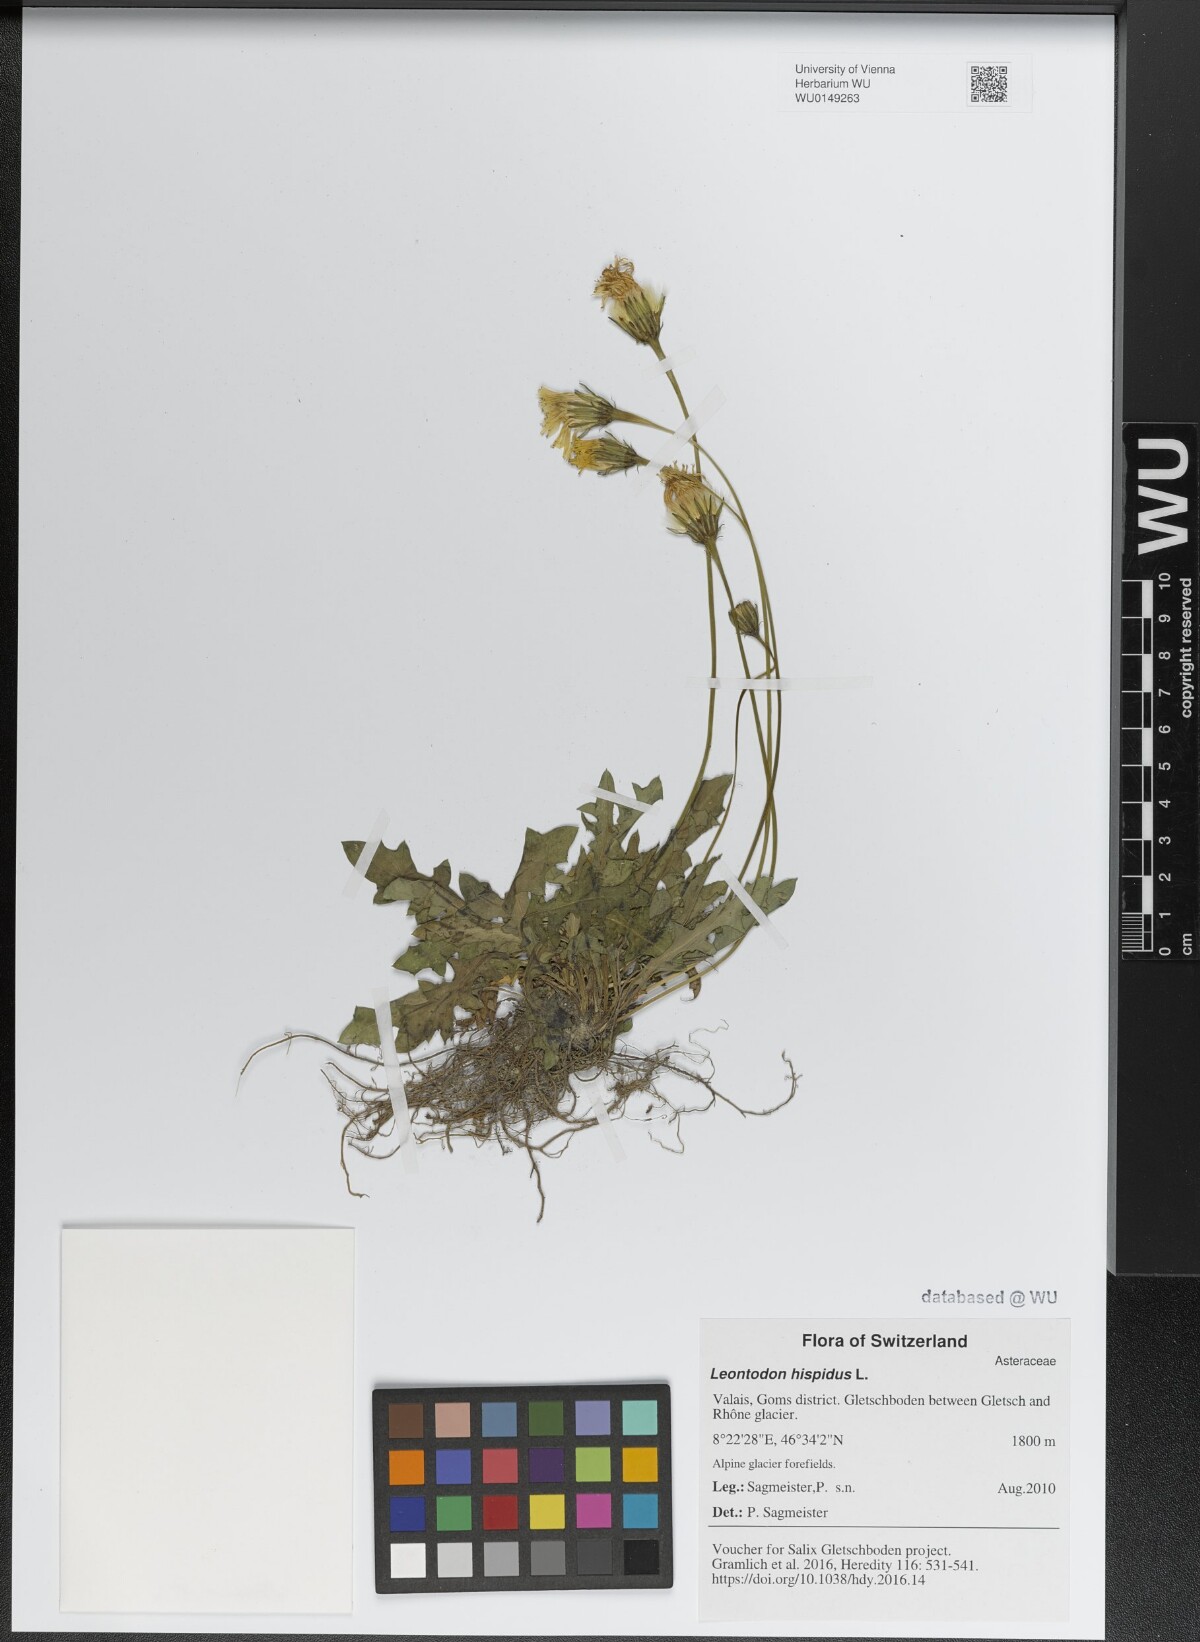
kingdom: Plantae
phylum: Tracheophyta
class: Magnoliopsida
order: Asterales
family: Asteraceae
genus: Leontodon
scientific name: Leontodon hispidus
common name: Rough hawkbit
